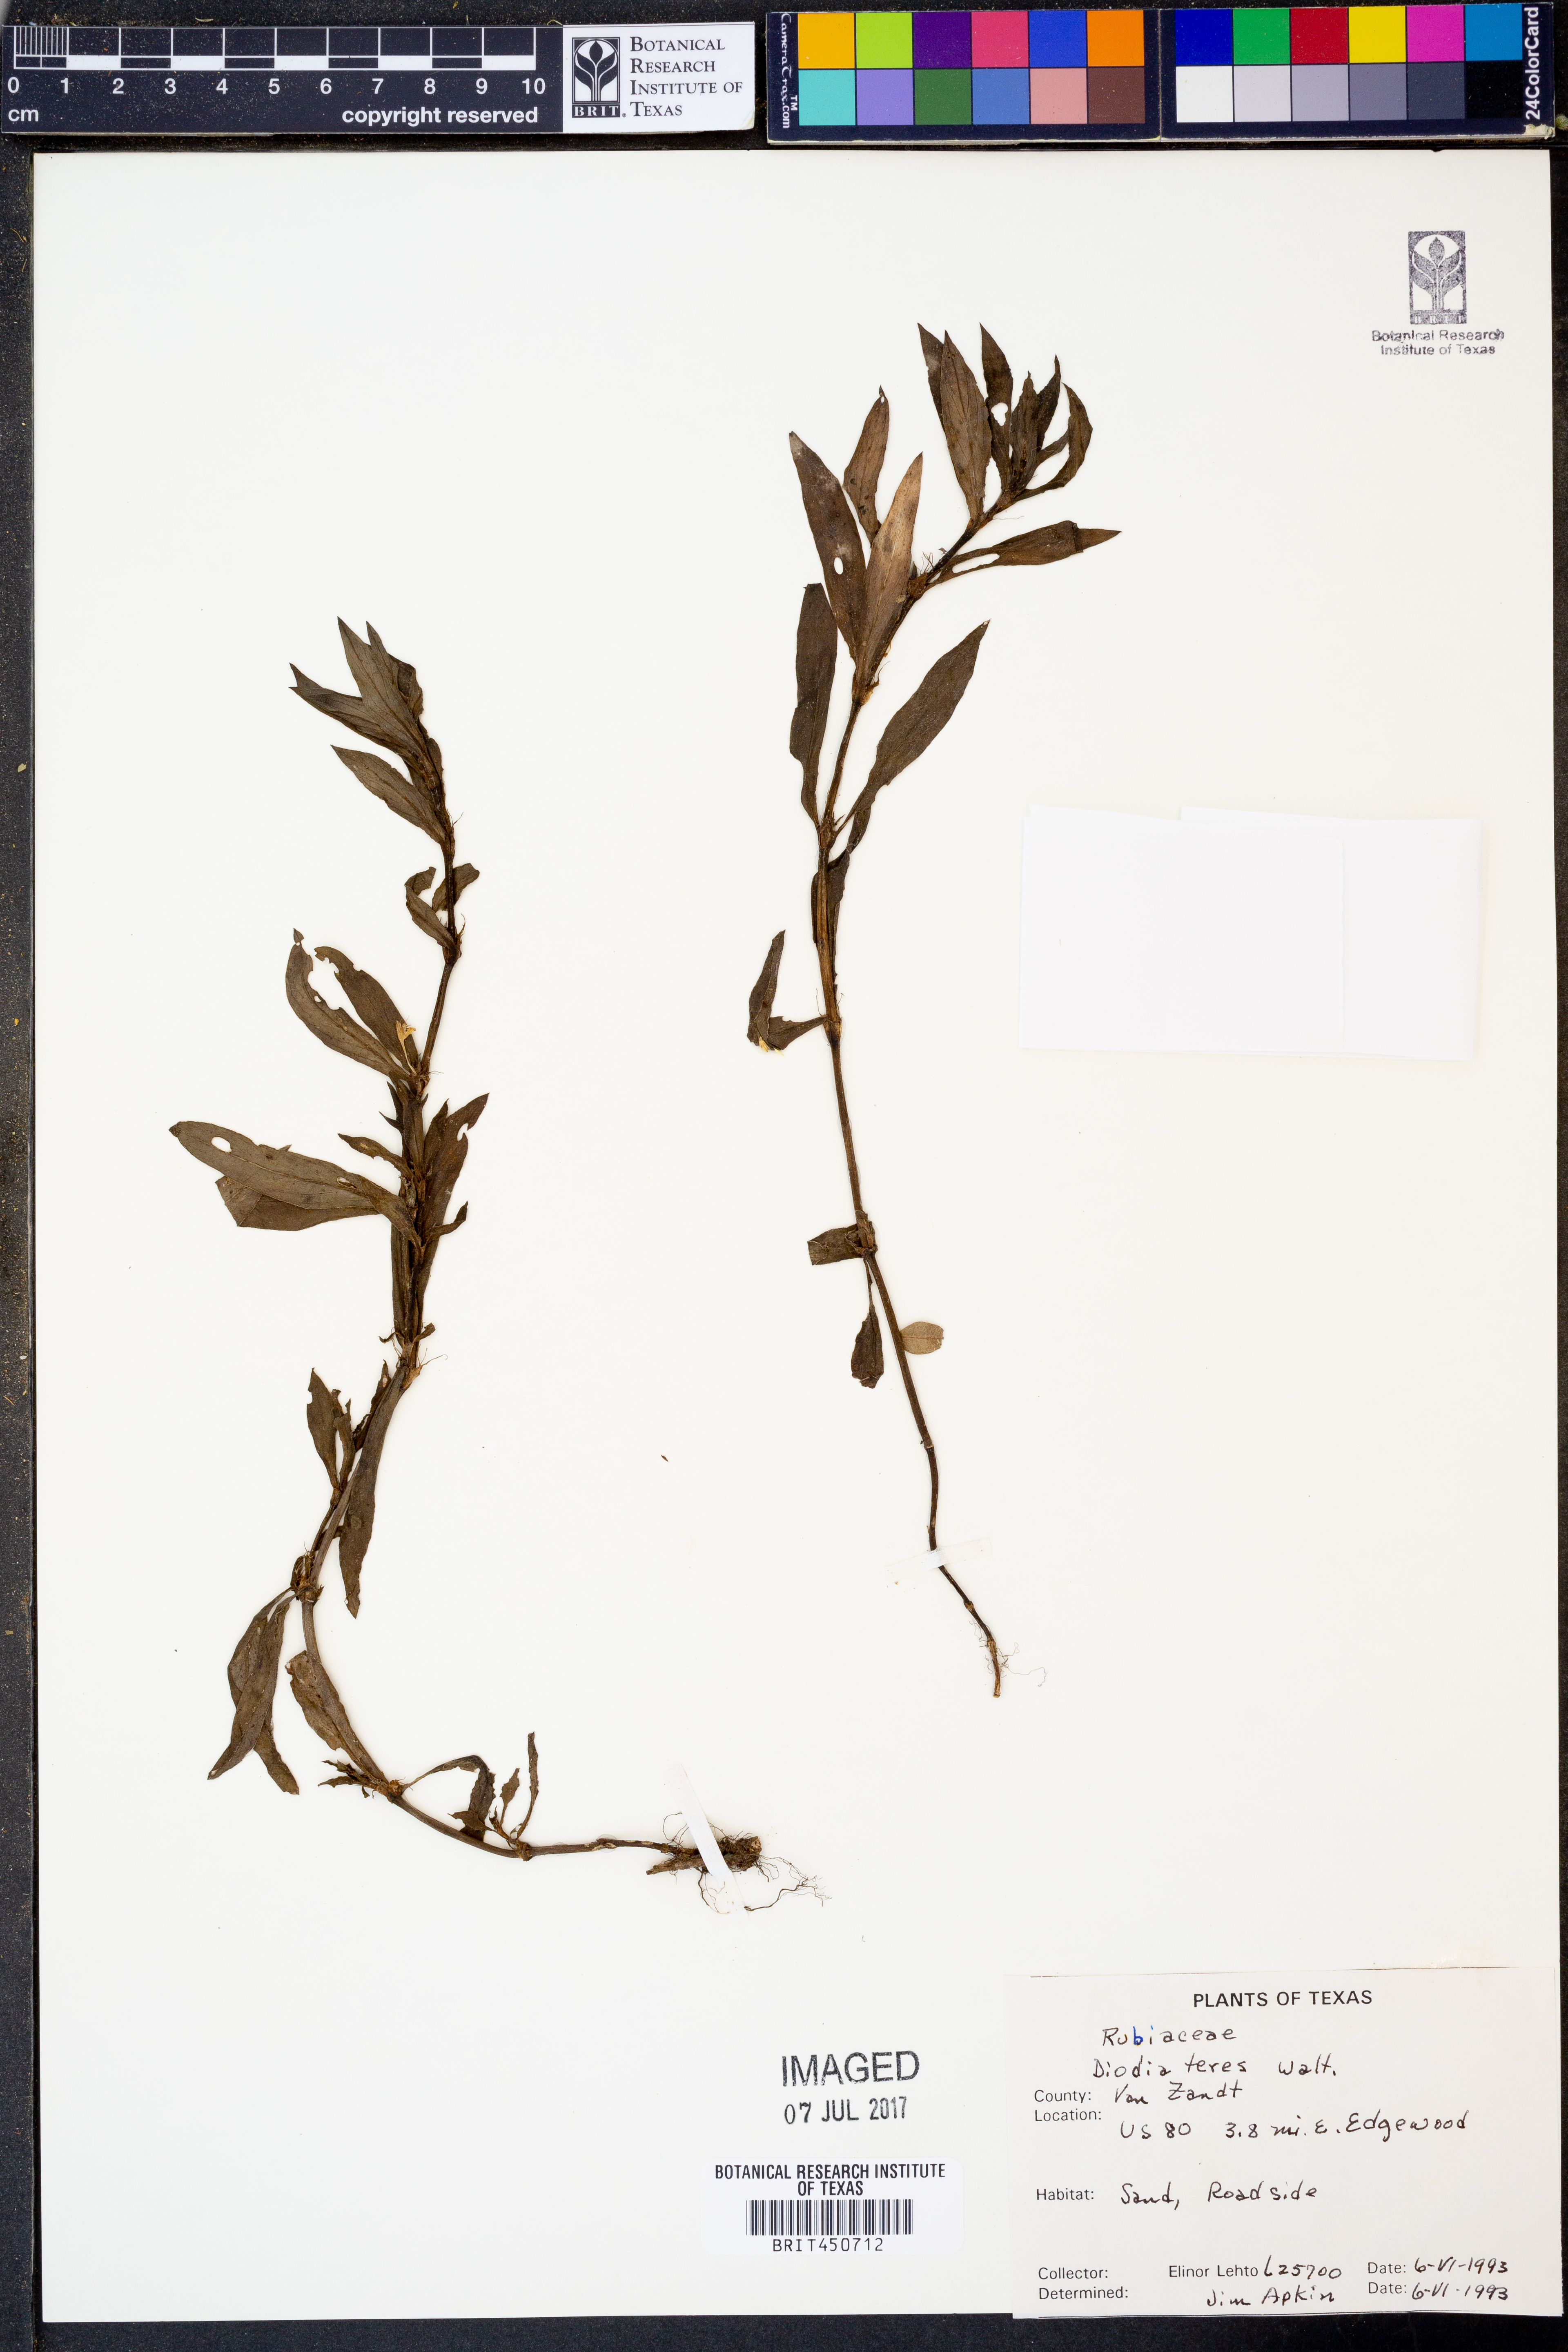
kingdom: Plantae
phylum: Tracheophyta
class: Magnoliopsida
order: Gentianales
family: Rubiaceae
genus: Hexasepalum
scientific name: Hexasepalum teres
